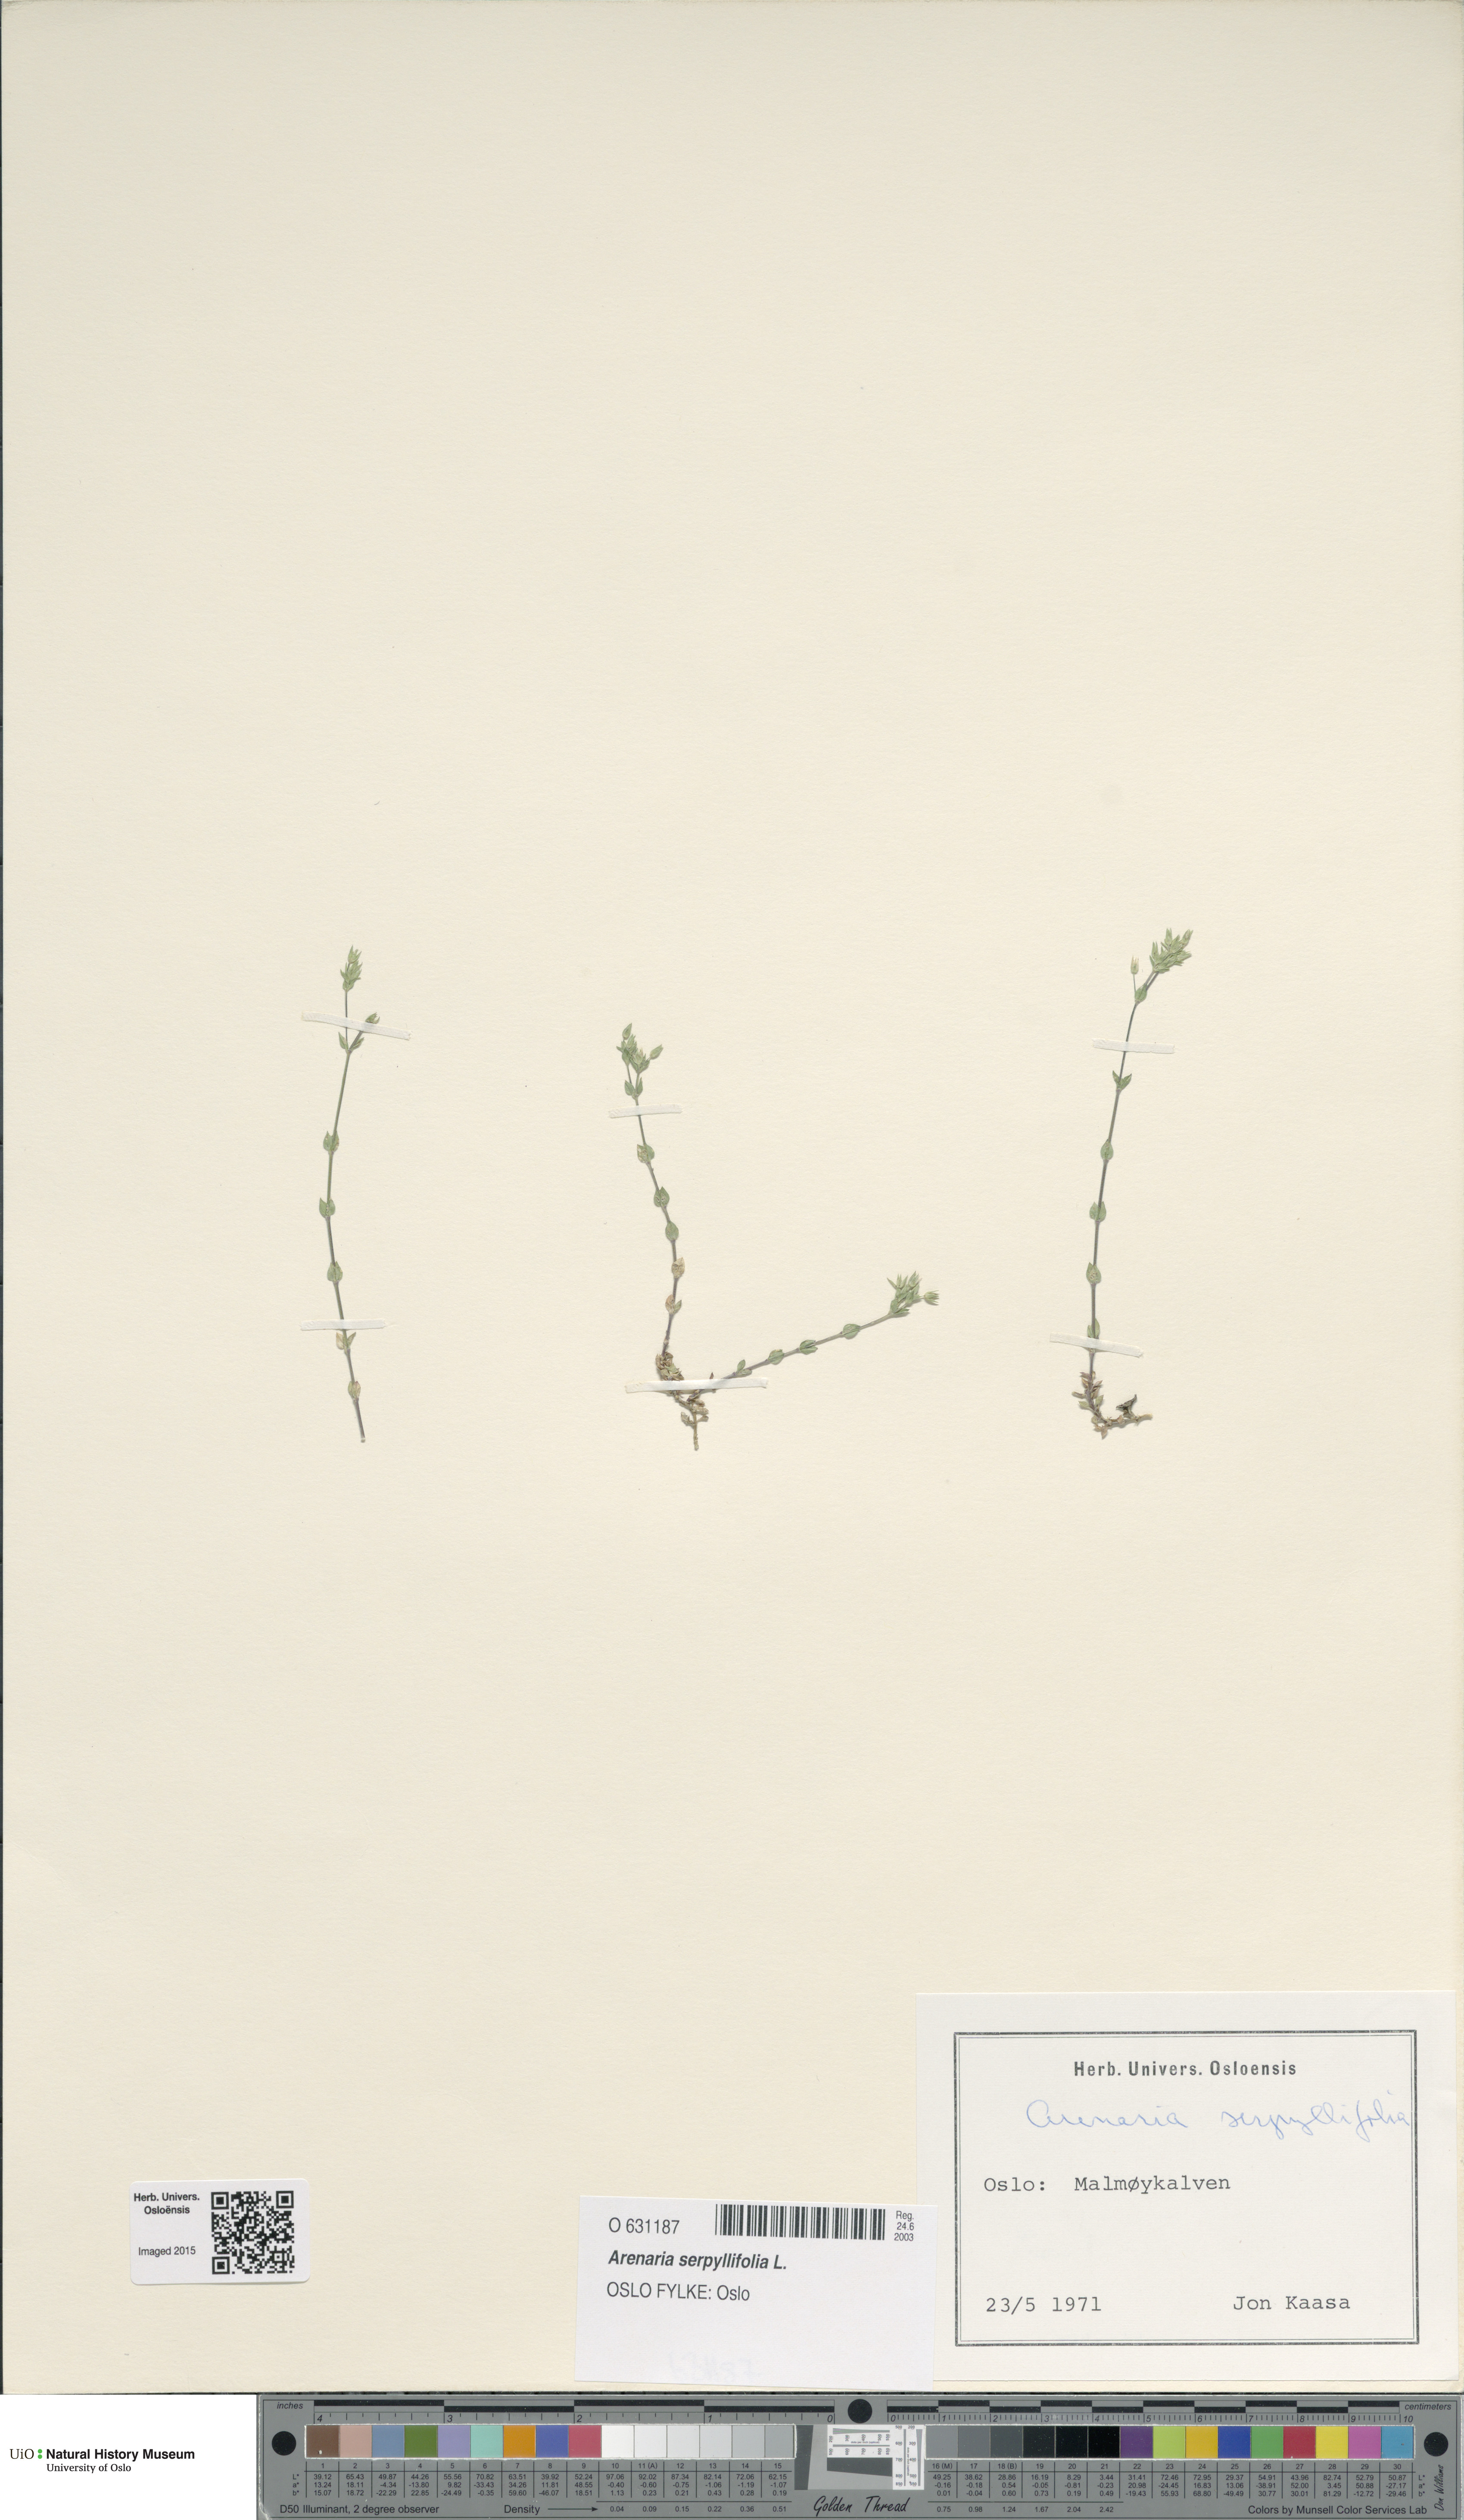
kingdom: Plantae
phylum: Tracheophyta
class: Magnoliopsida
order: Caryophyllales
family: Caryophyllaceae
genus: Arenaria
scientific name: Arenaria serpyllifolia
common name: Thyme-leaved sandwort
